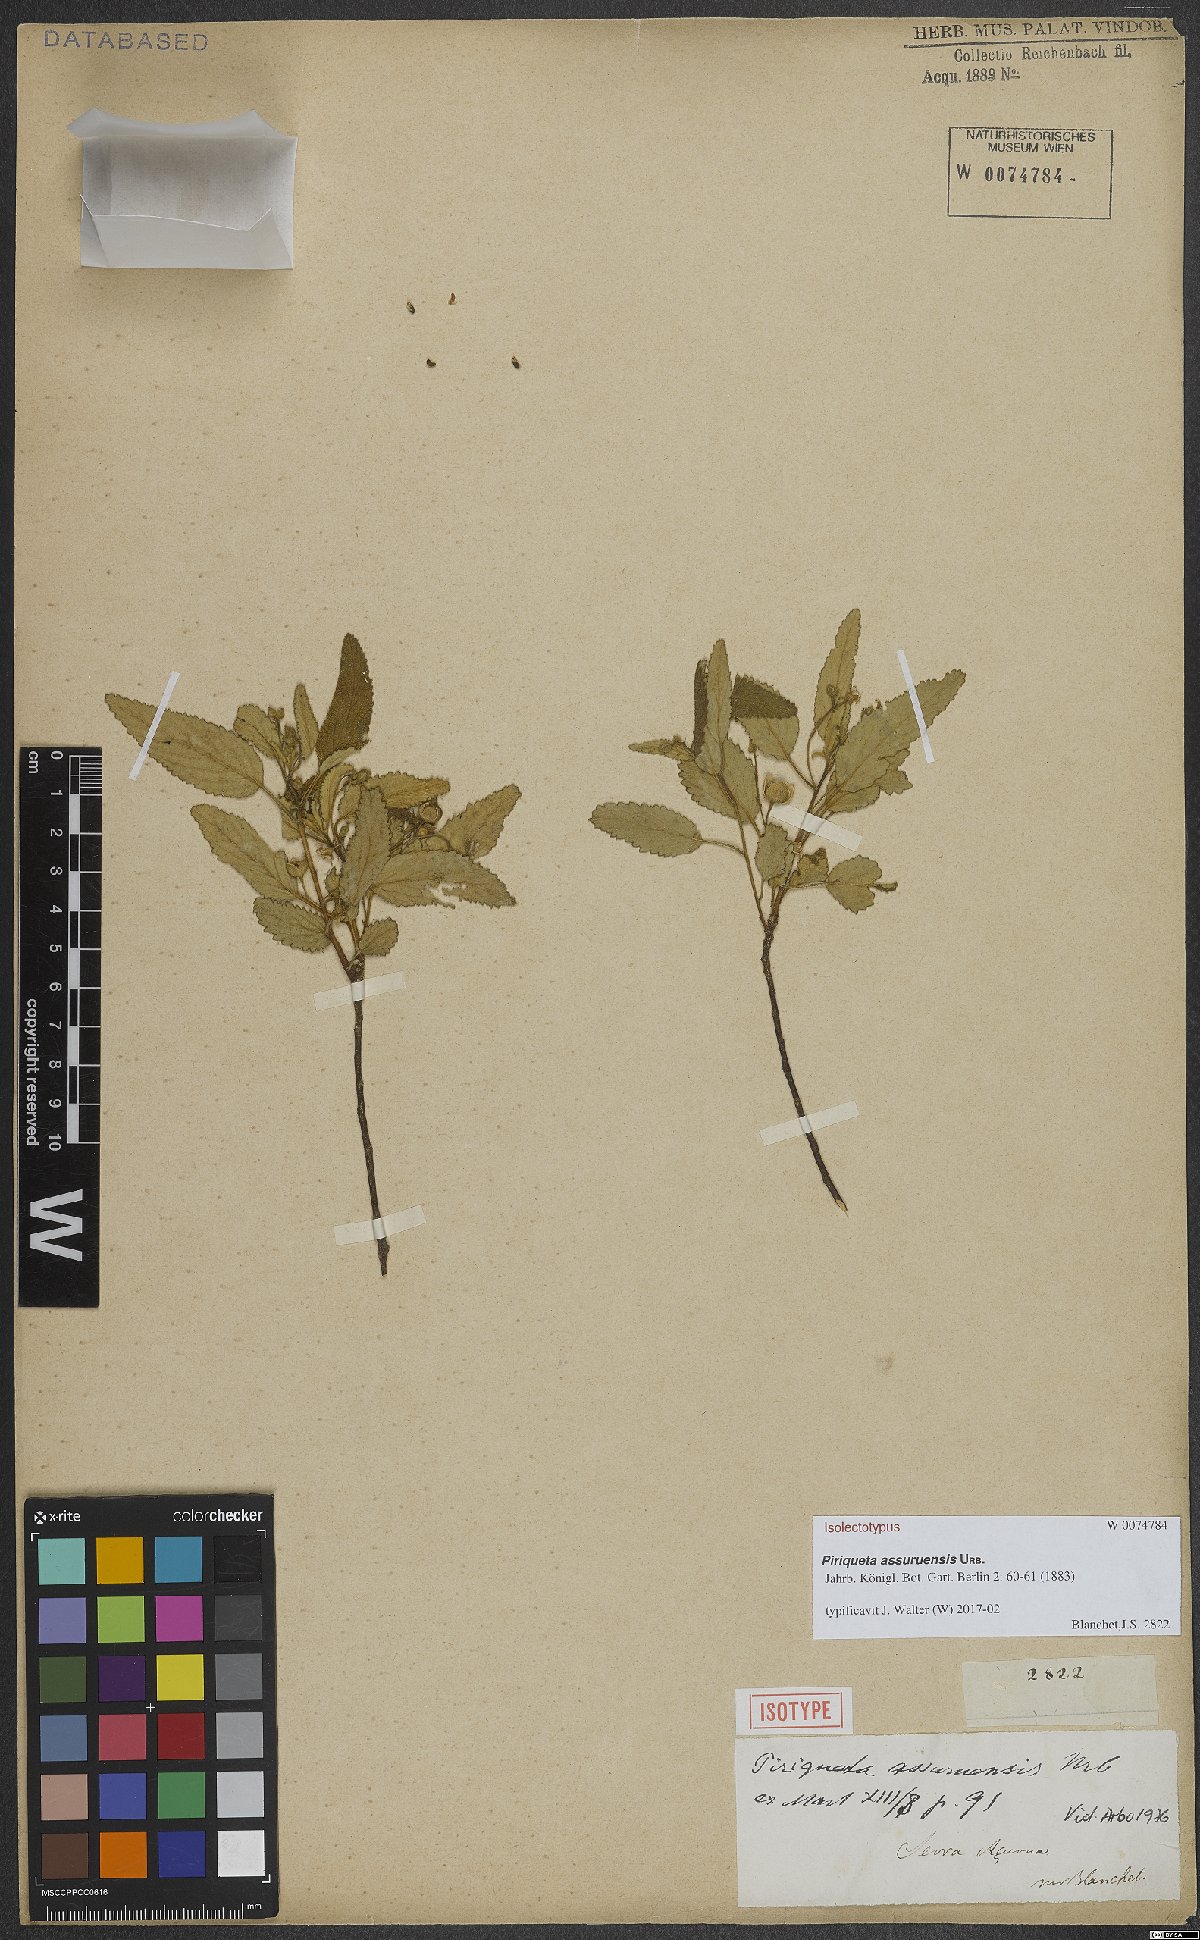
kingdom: Plantae
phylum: Tracheophyta
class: Magnoliopsida
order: Malpighiales
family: Turneraceae
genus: Piriqueta
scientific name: Piriqueta assuruensis
